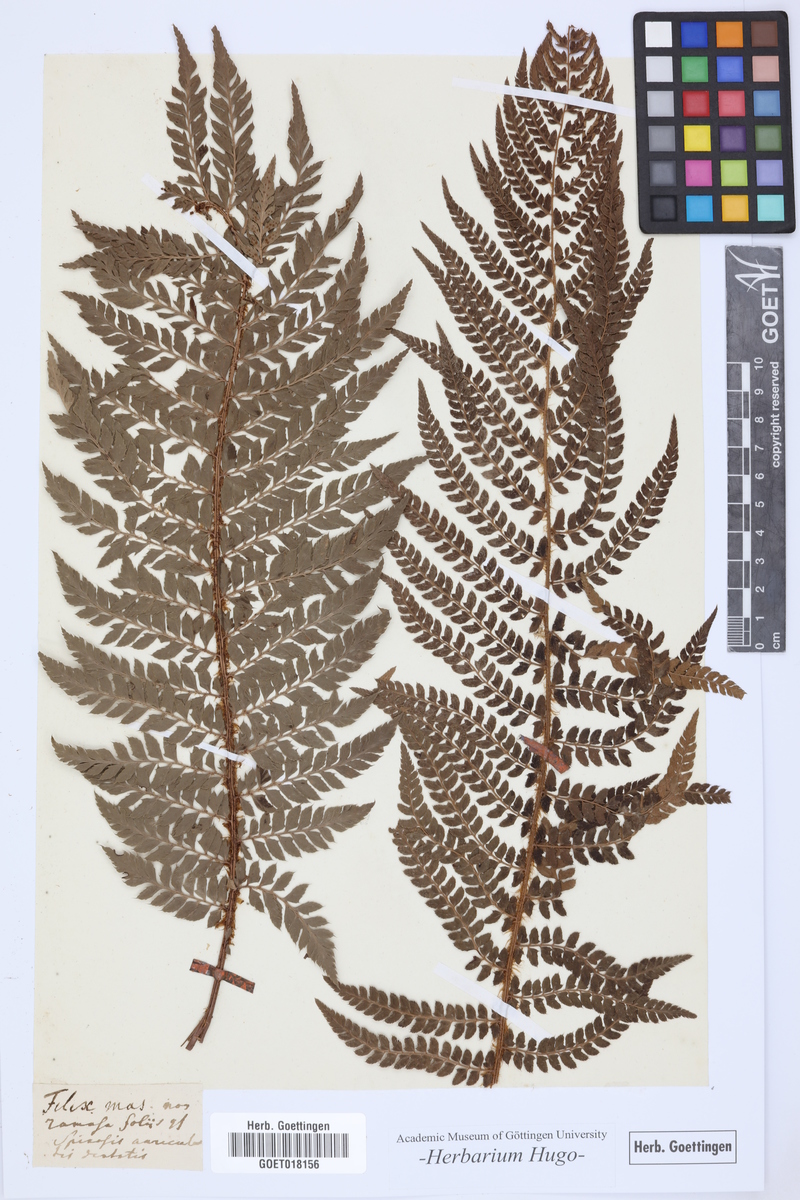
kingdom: Plantae
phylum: Tracheophyta
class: Polypodiopsida
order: Polypodiales
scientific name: Polypodiales
